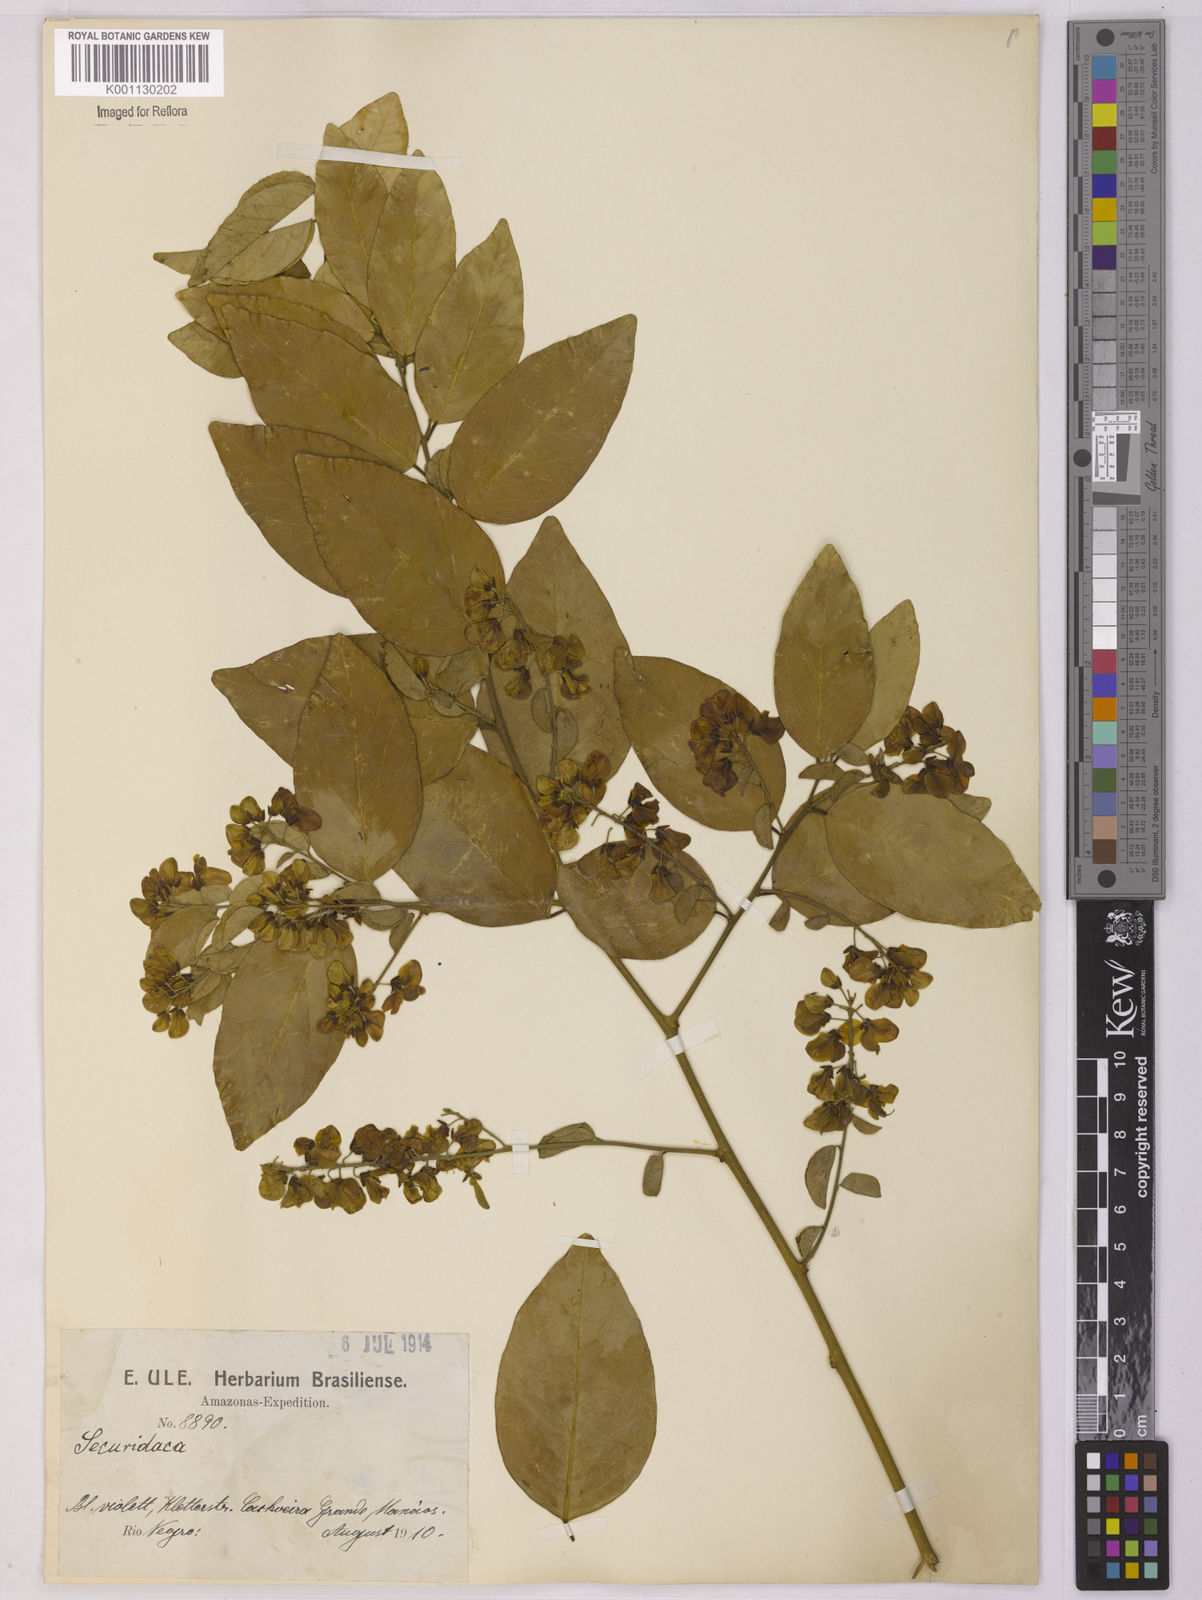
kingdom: Plantae
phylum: Tracheophyta
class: Magnoliopsida
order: Fabales
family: Polygalaceae
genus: Securidaca
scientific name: Securidaca
